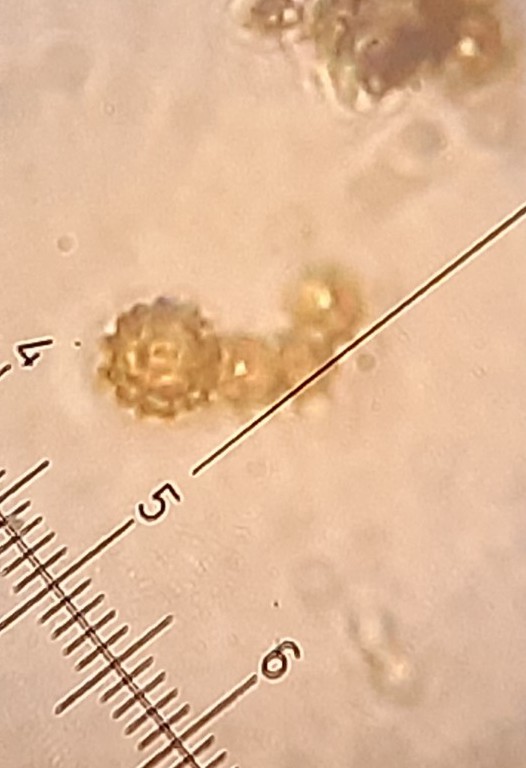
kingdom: Fungi
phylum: Basidiomycota
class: Agaricomycetes
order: Agaricales
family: Agaricaceae
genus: Lycoperdon
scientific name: Lycoperdon
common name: støvbold
